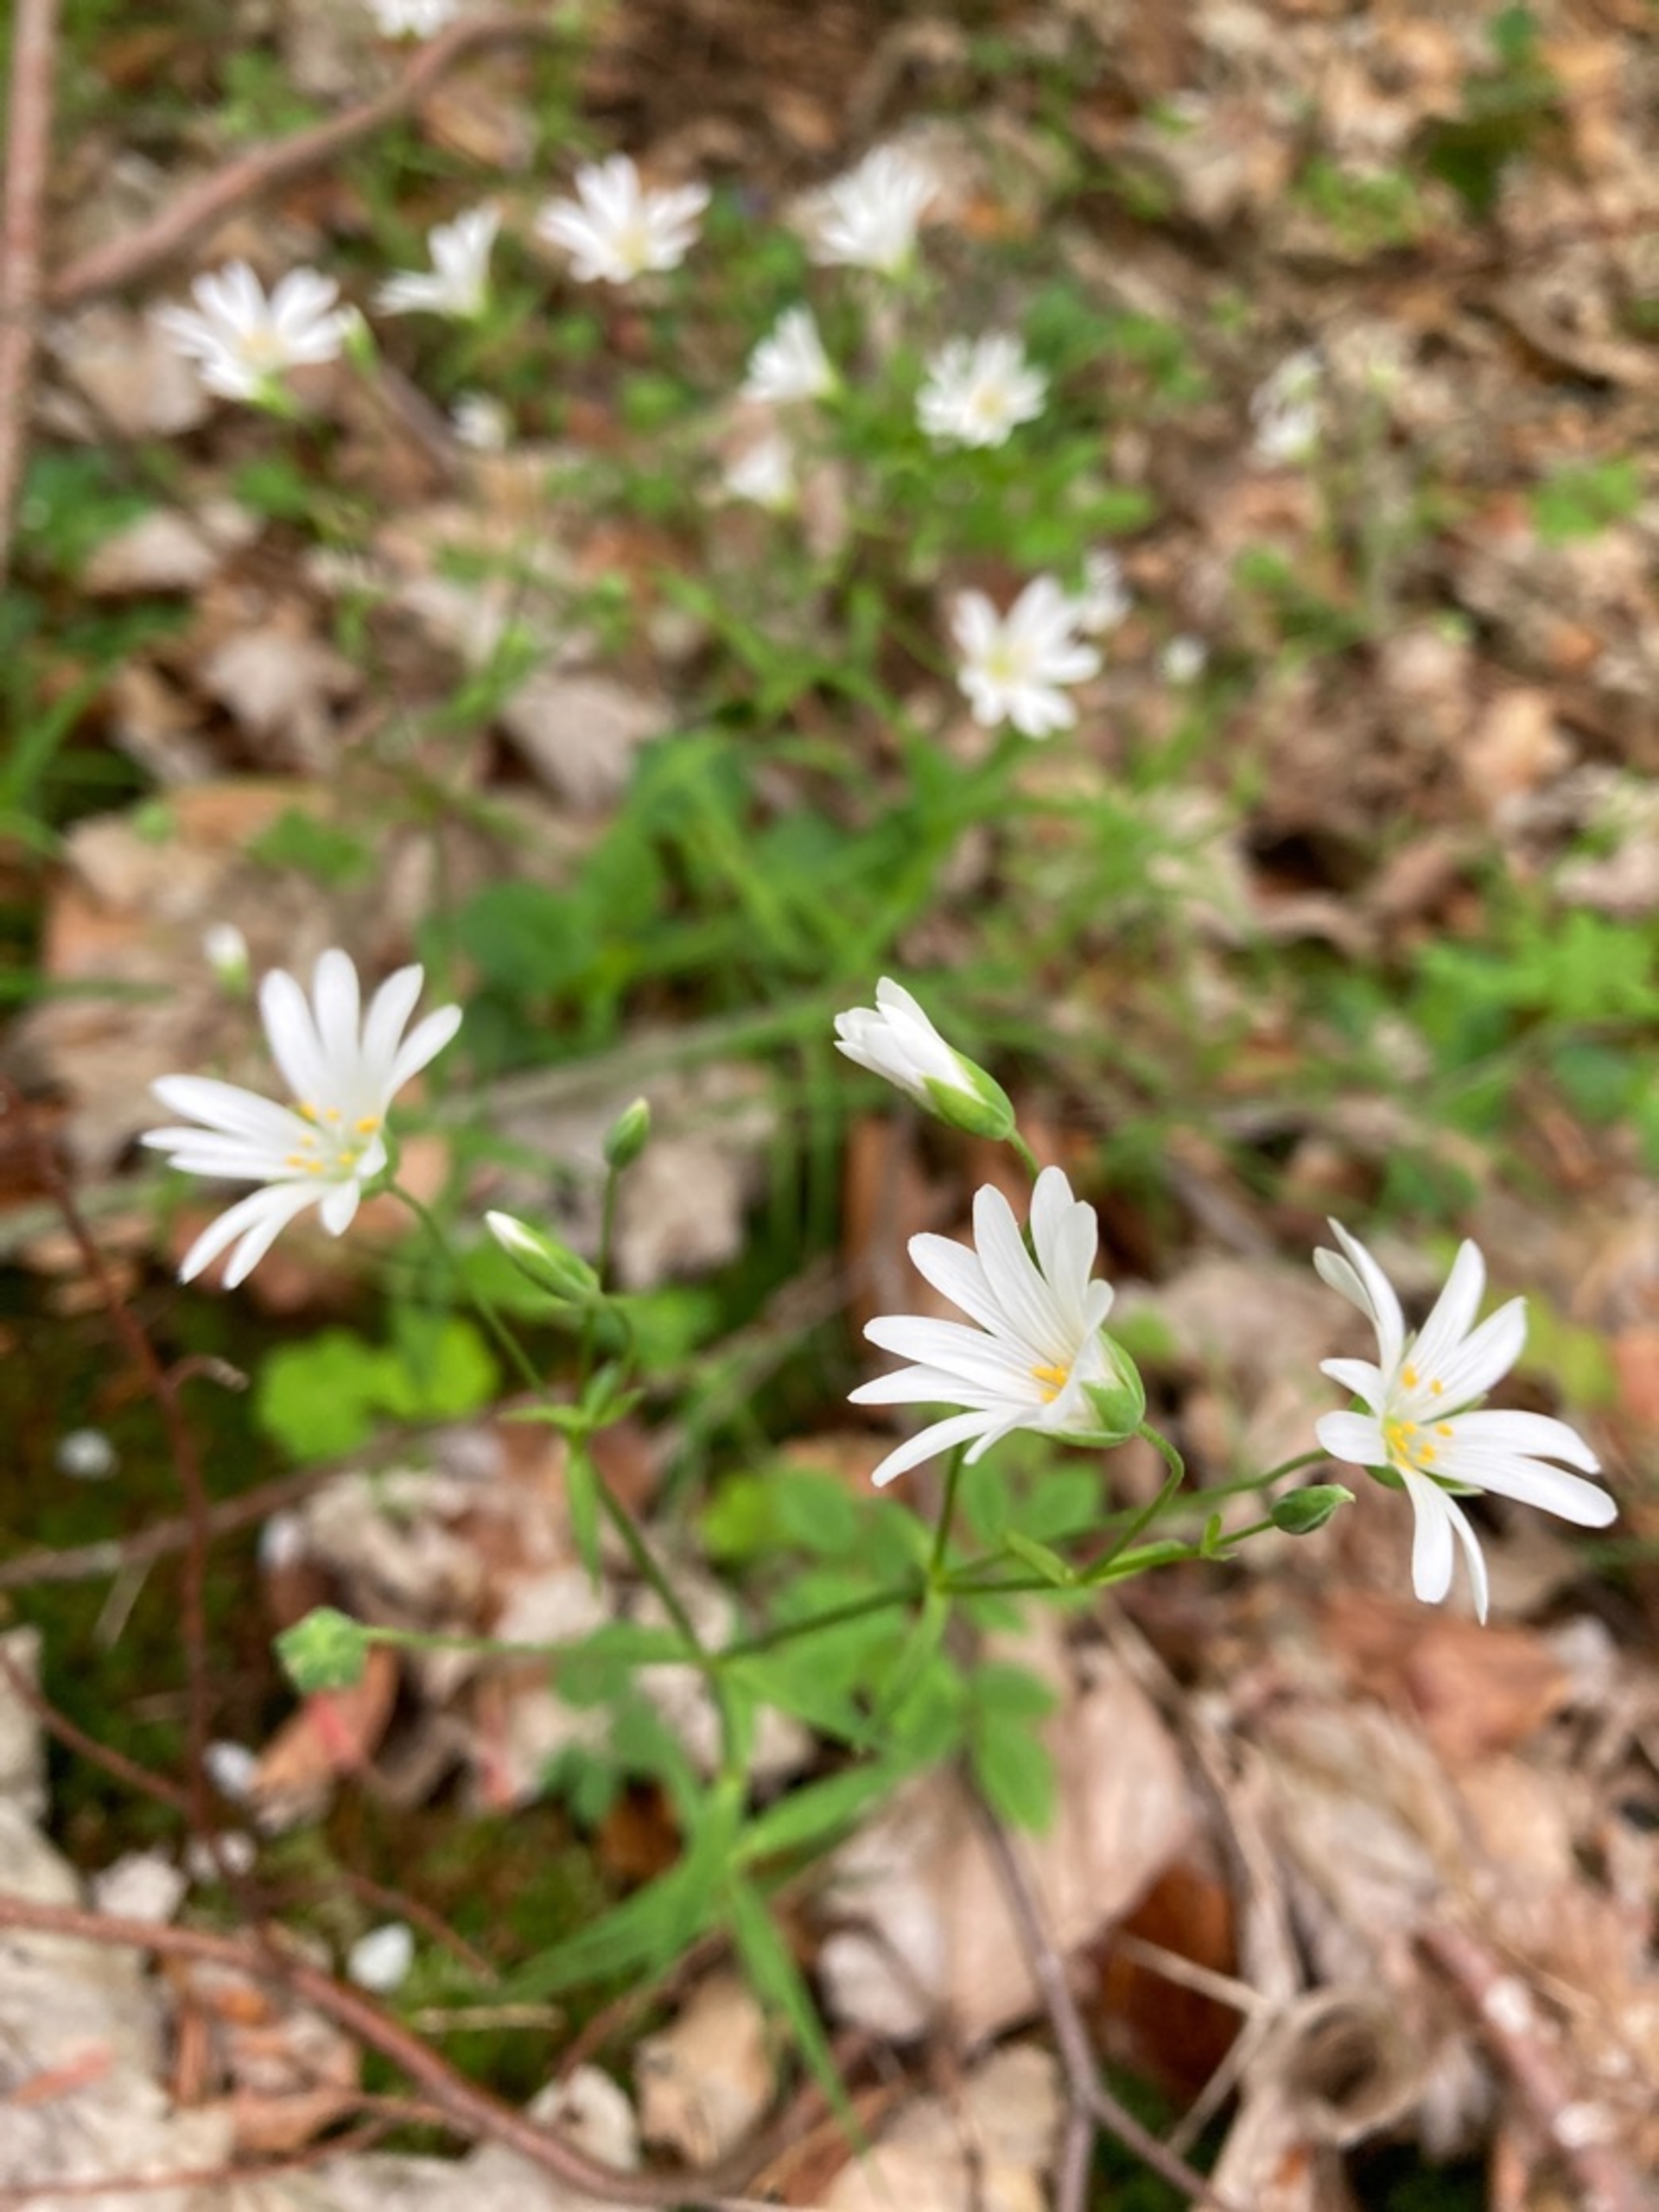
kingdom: Plantae
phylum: Tracheophyta
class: Magnoliopsida
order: Caryophyllales
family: Caryophyllaceae
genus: Rabelera
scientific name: Rabelera holostea
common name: Stor fladstjerne
